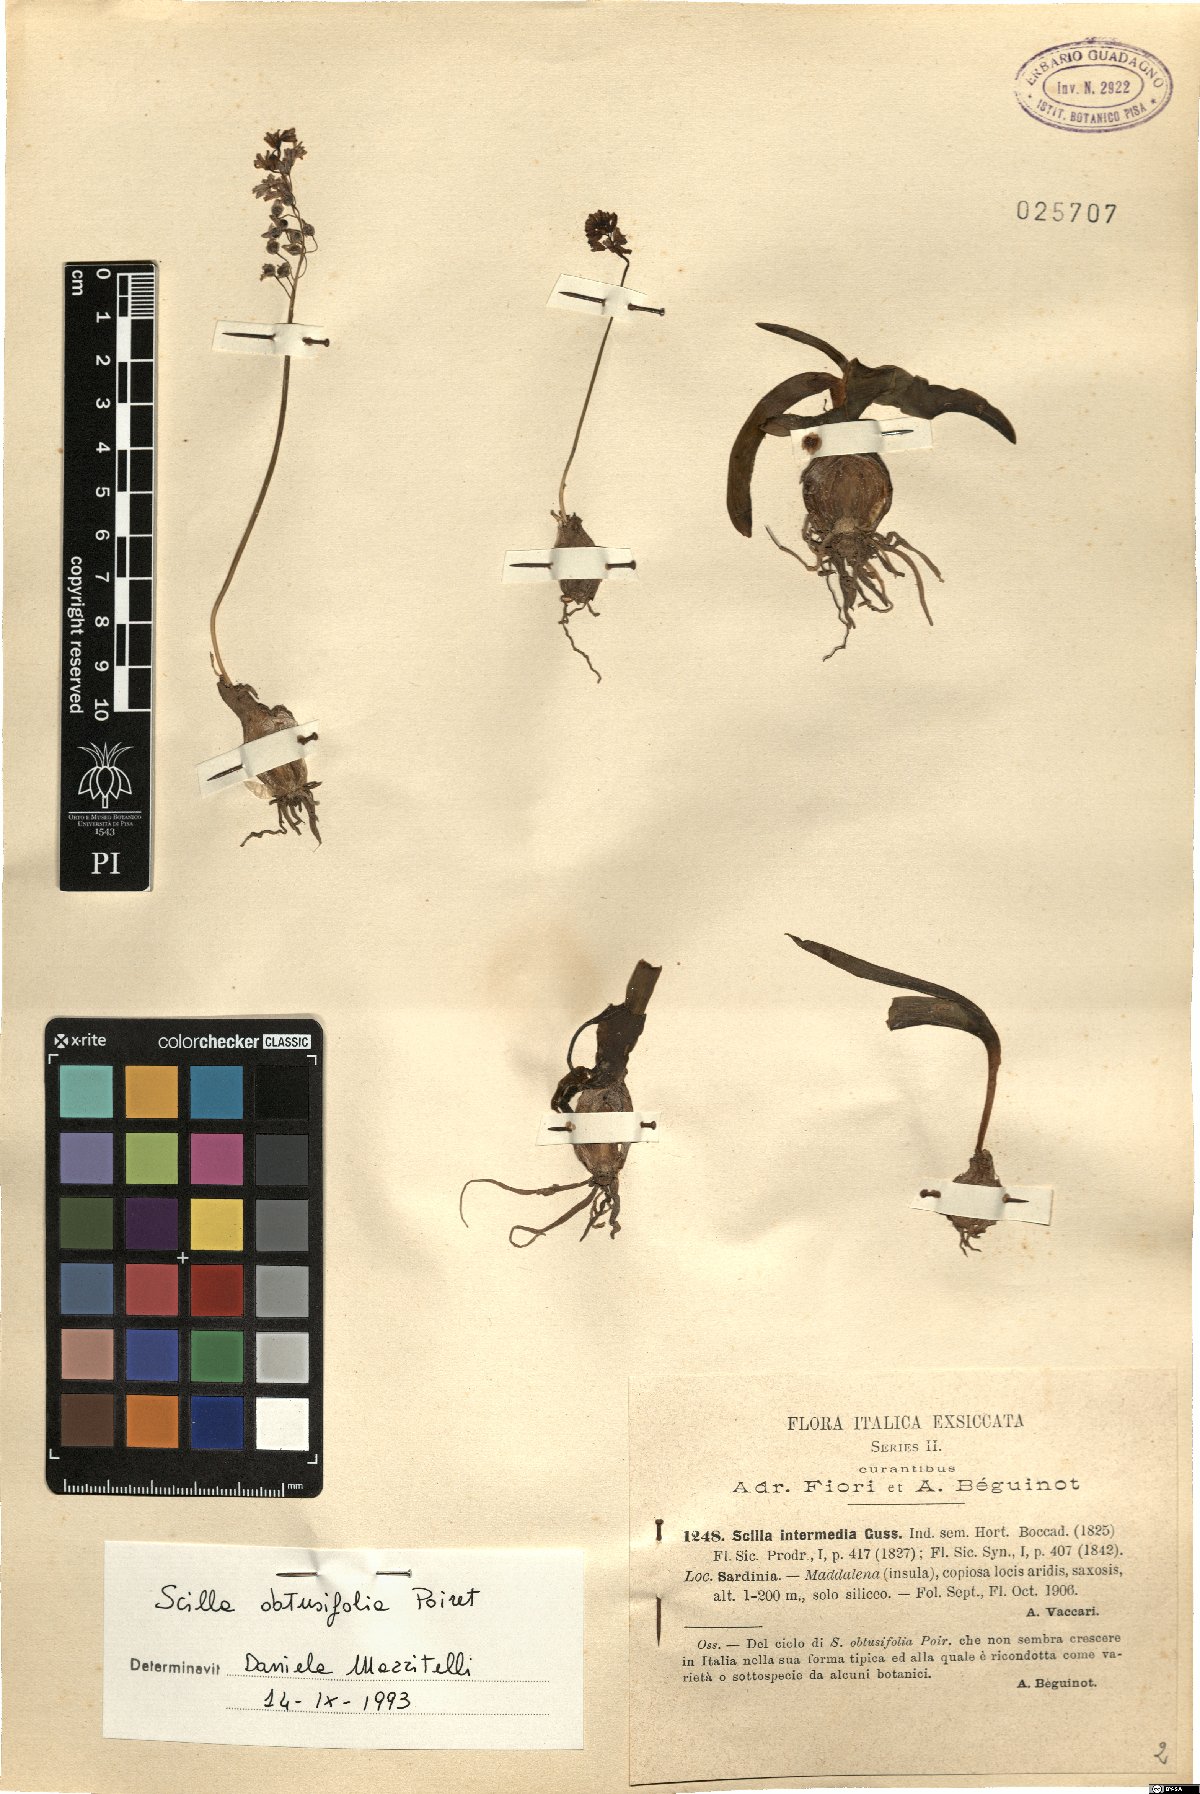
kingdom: Plantae
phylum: Tracheophyta
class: Liliopsida
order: Asparagales
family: Asparagaceae
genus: Prospero
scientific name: Prospero obtusifolium
